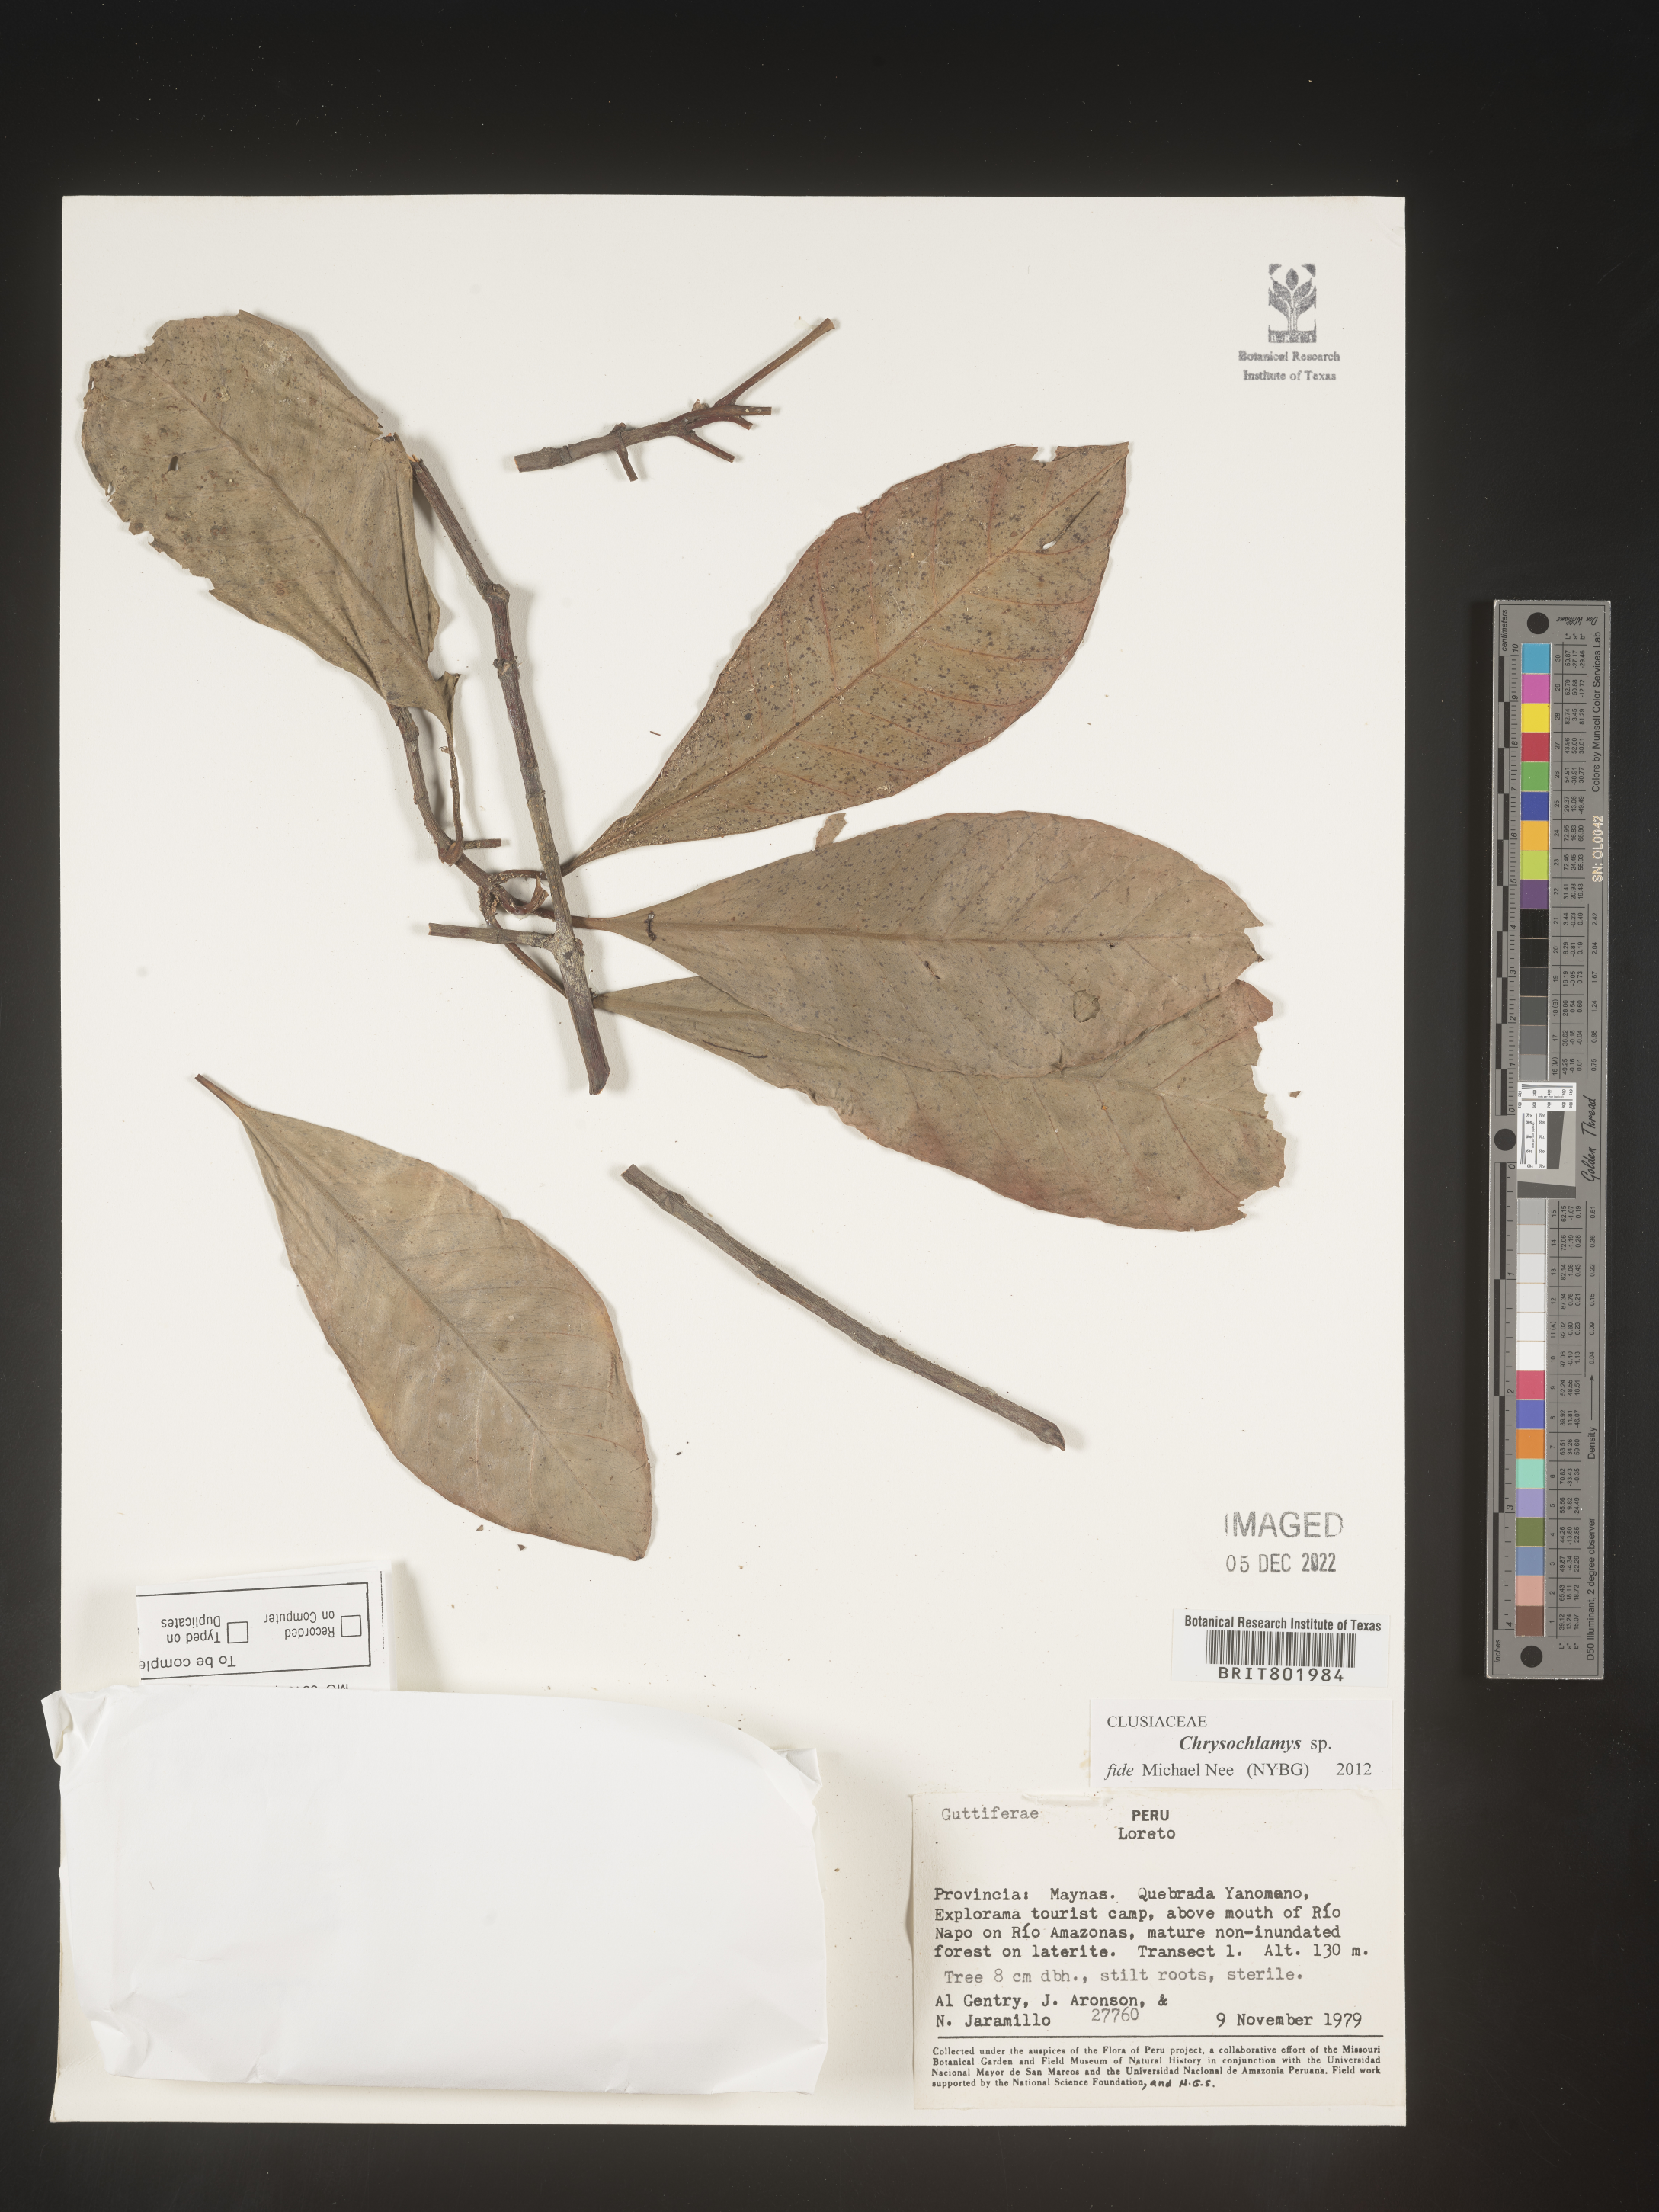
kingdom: Plantae
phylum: Tracheophyta
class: Magnoliopsida
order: Malpighiales
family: Clusiaceae
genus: Chrysochlamys
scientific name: Chrysochlamys
